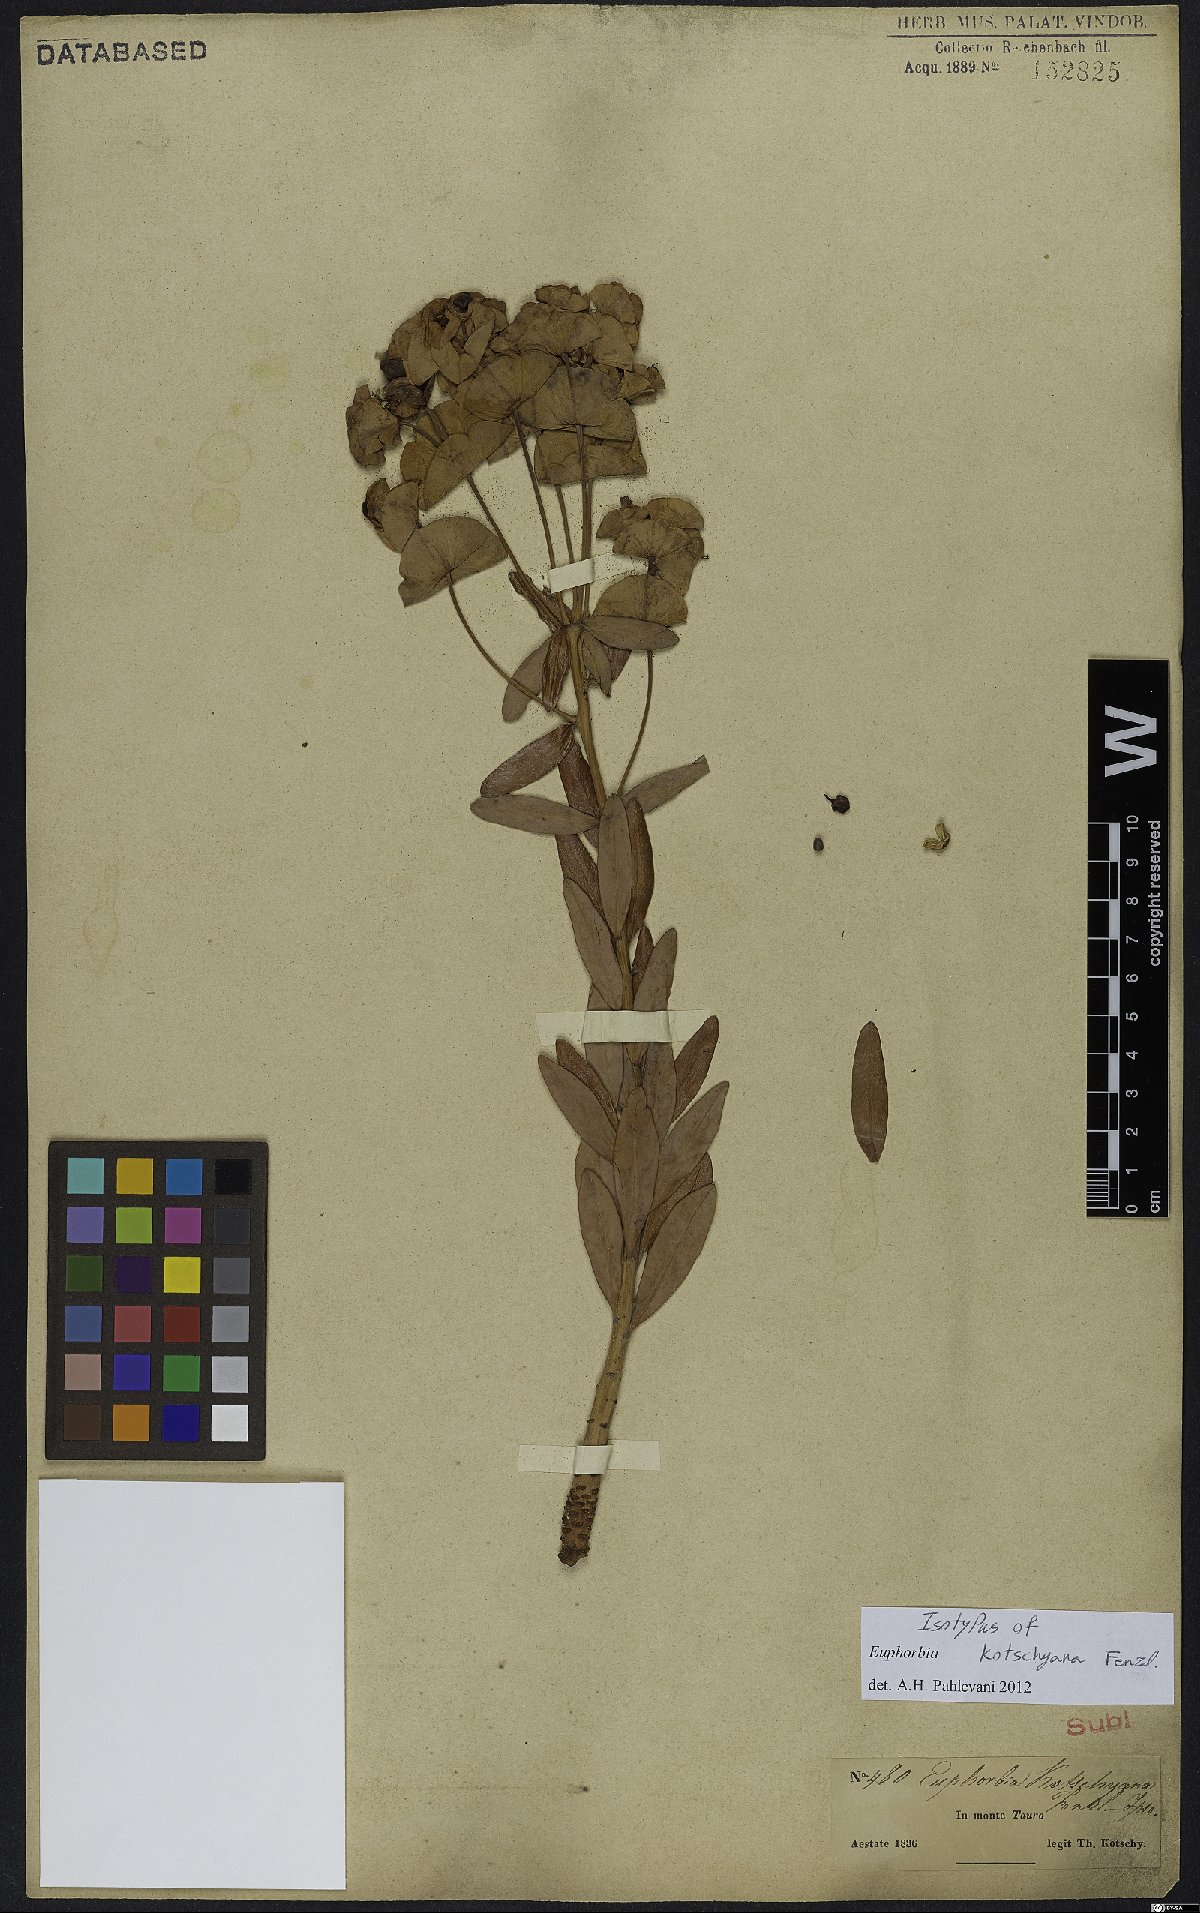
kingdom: Plantae
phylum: Tracheophyta
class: Magnoliopsida
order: Malpighiales
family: Euphorbiaceae
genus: Euphorbia
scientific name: Euphorbia kotschyana
